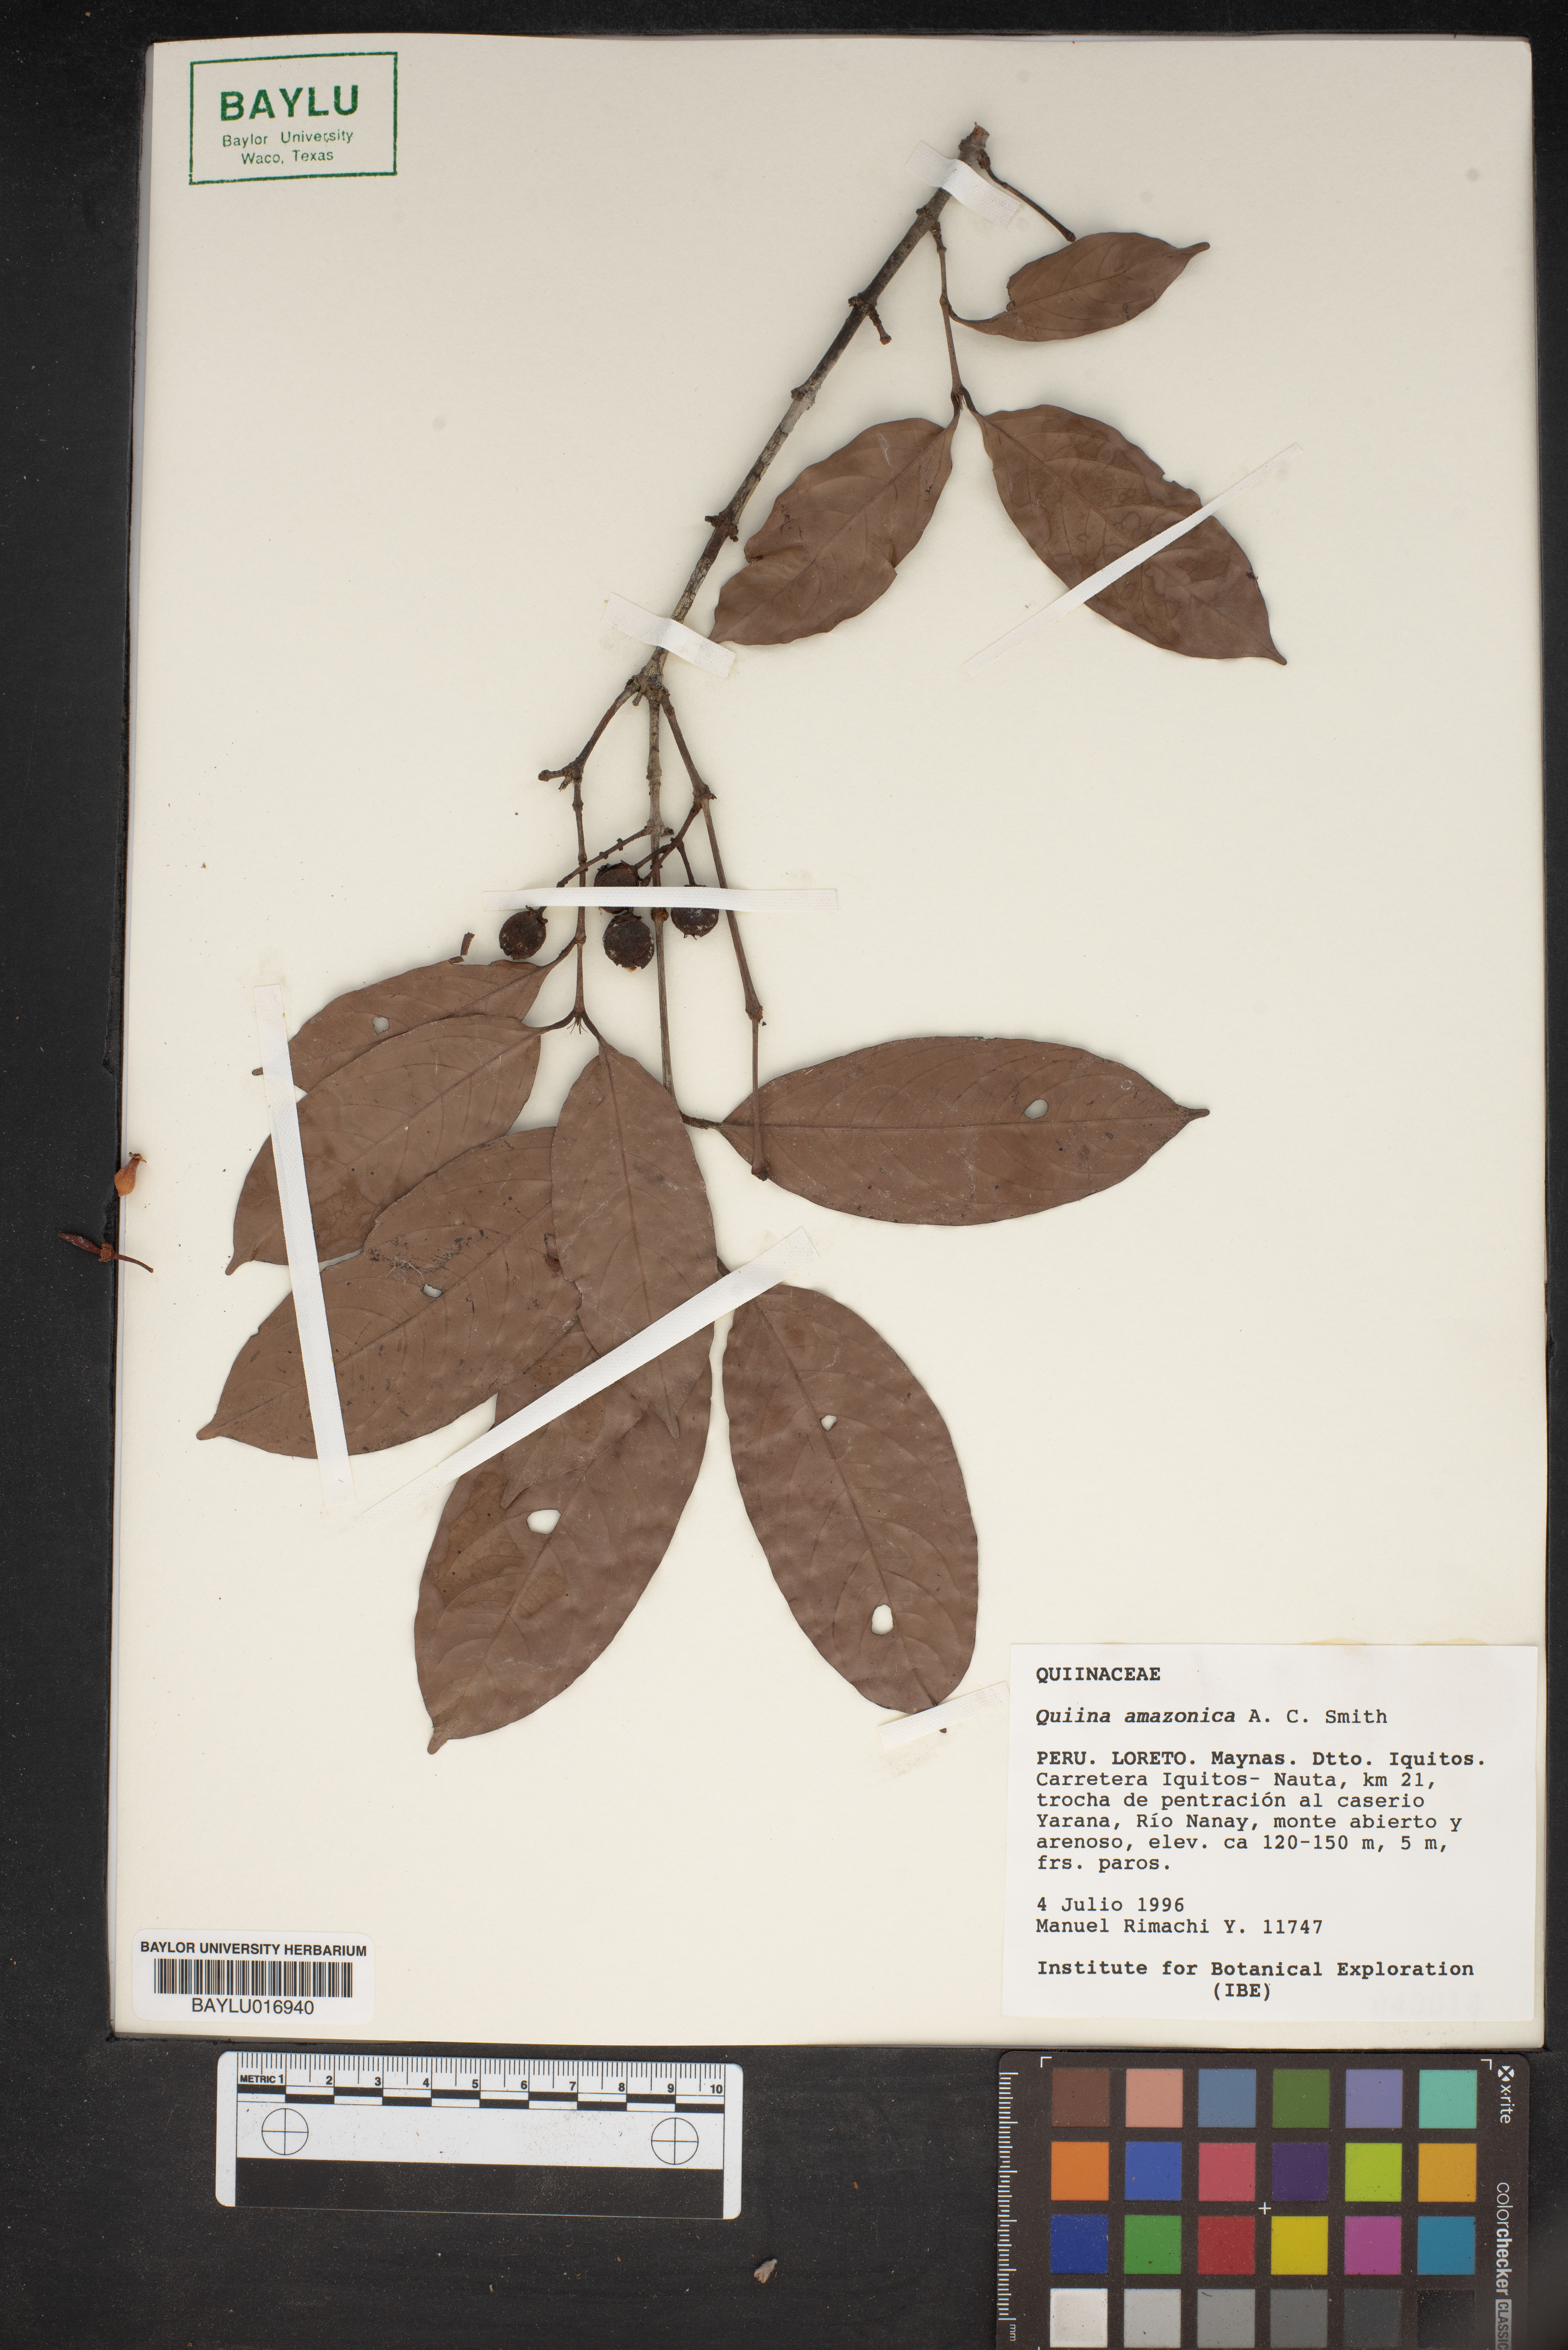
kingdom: Plantae
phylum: Tracheophyta
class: Magnoliopsida
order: Malpighiales
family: Quiinaceae
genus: Quiina
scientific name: Quiina amazonica
